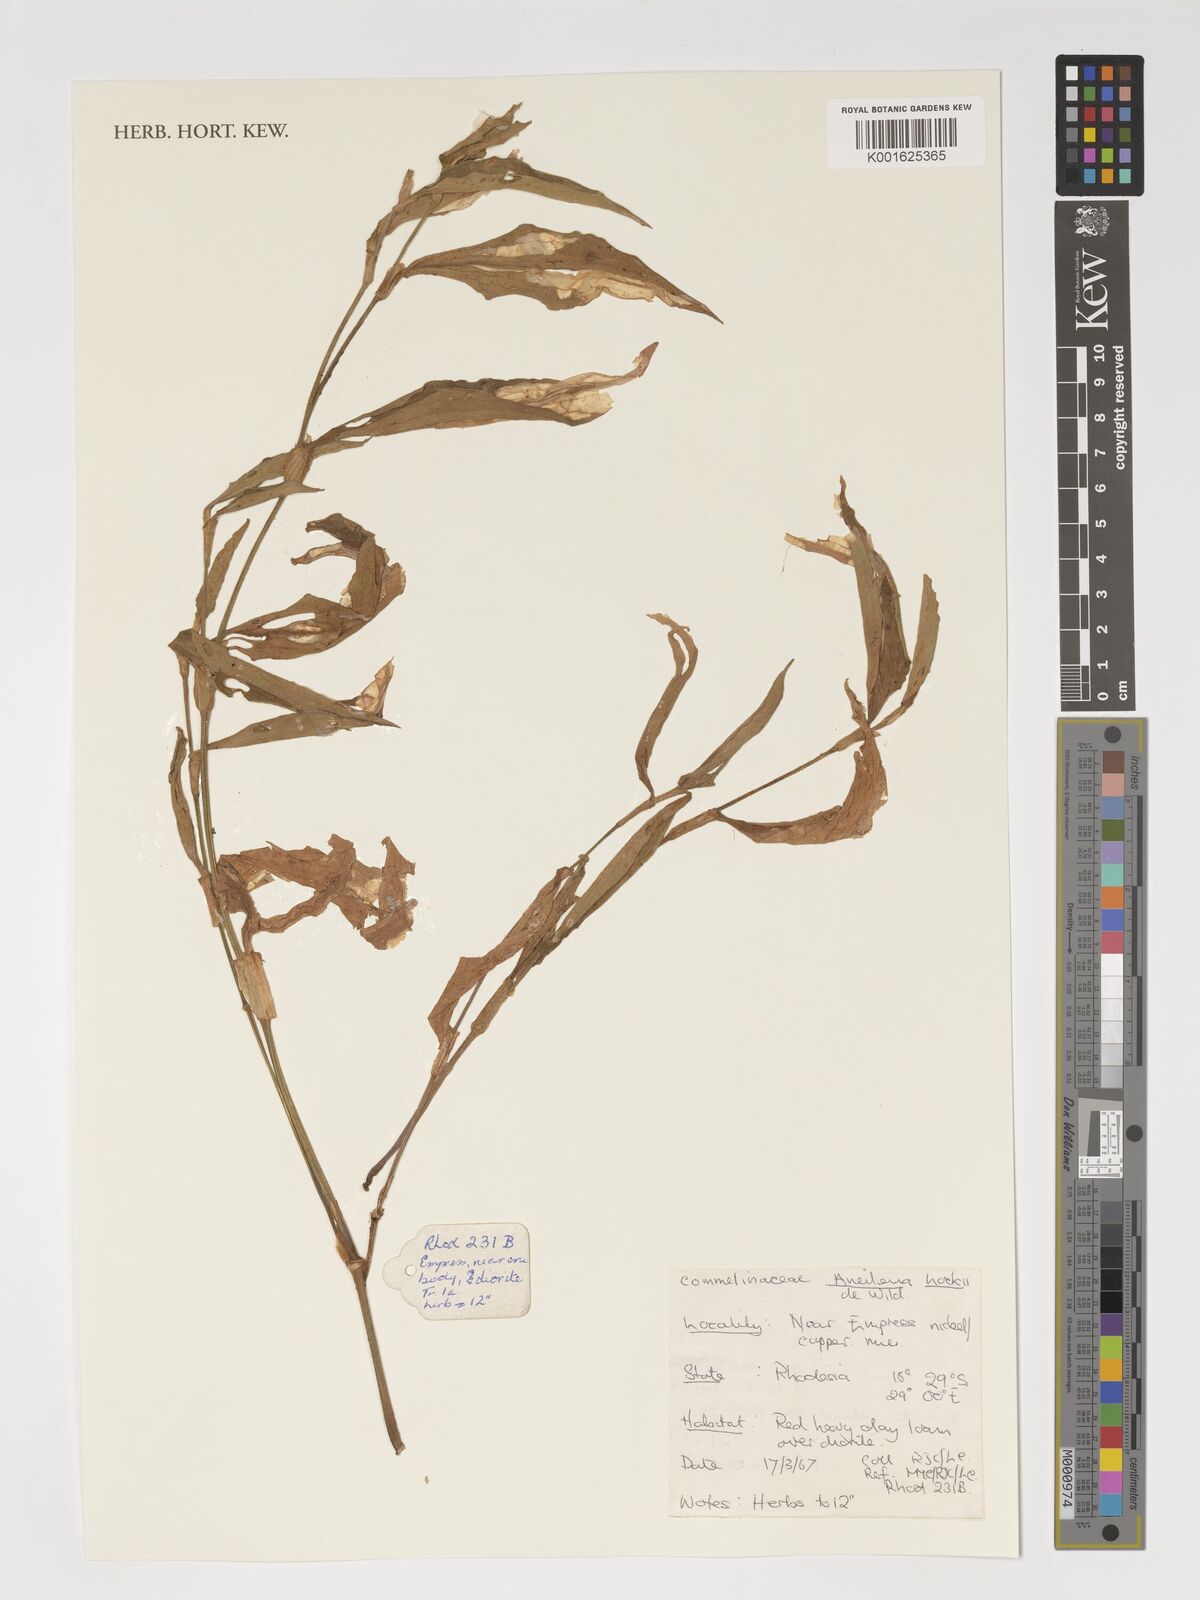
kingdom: Plantae
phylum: Tracheophyta
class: Liliopsida
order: Commelinales
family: Commelinaceae
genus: Aneilema
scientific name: Aneilema hockii
